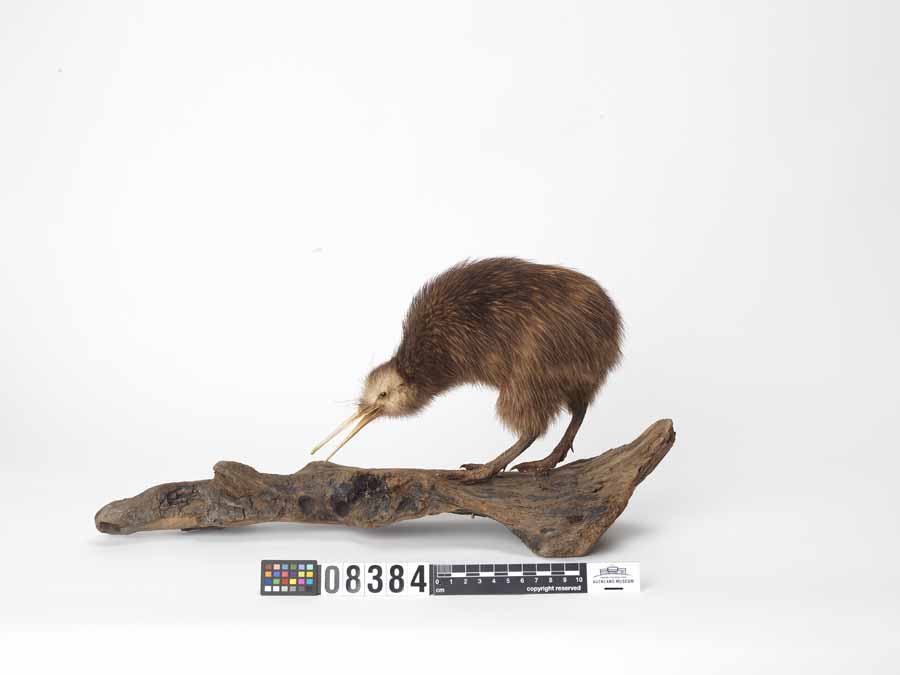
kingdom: Animalia
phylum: Chordata
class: Aves
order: Apterygiformes
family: Apterygidae
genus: Apteryx
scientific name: Apteryx mantelli
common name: North island brown kiwi
